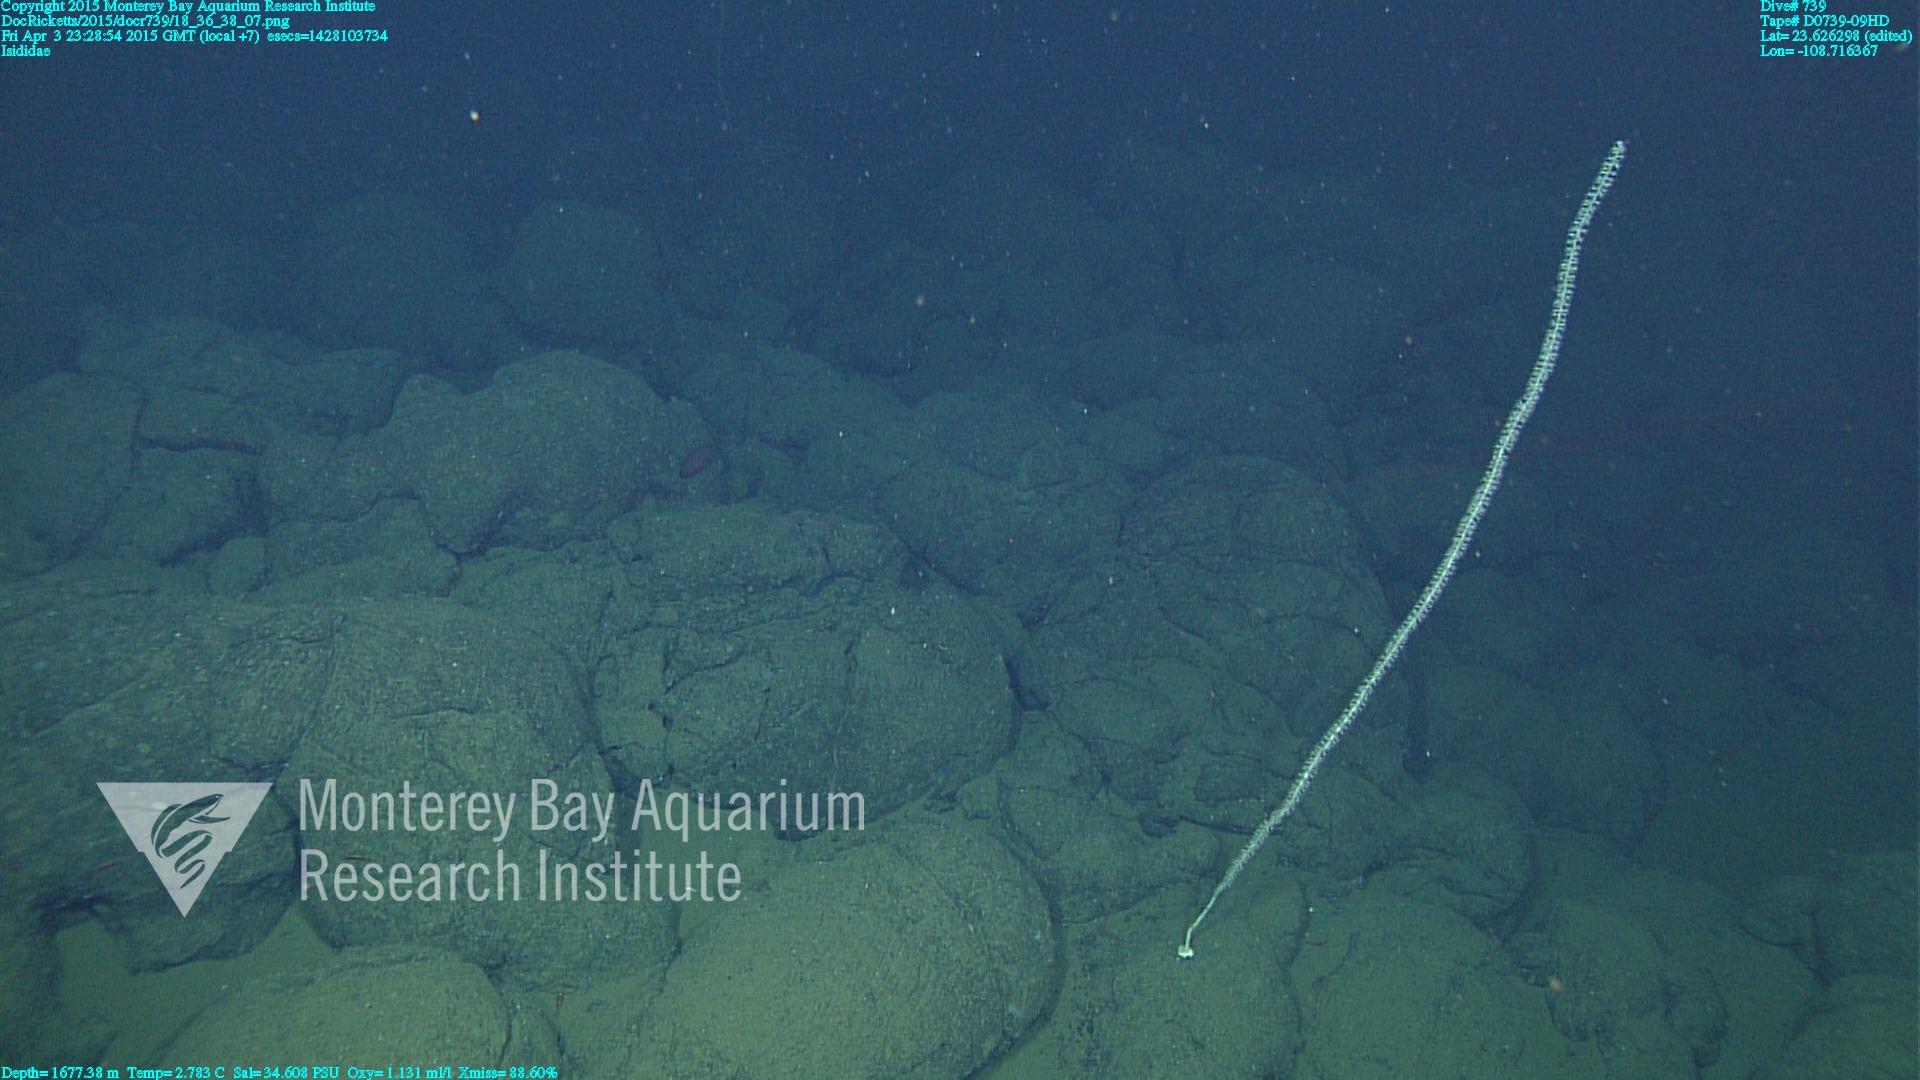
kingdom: Animalia
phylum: Cnidaria
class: Anthozoa
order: Scleralcyonacea
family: Keratoisididae
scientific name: Keratoisididae
